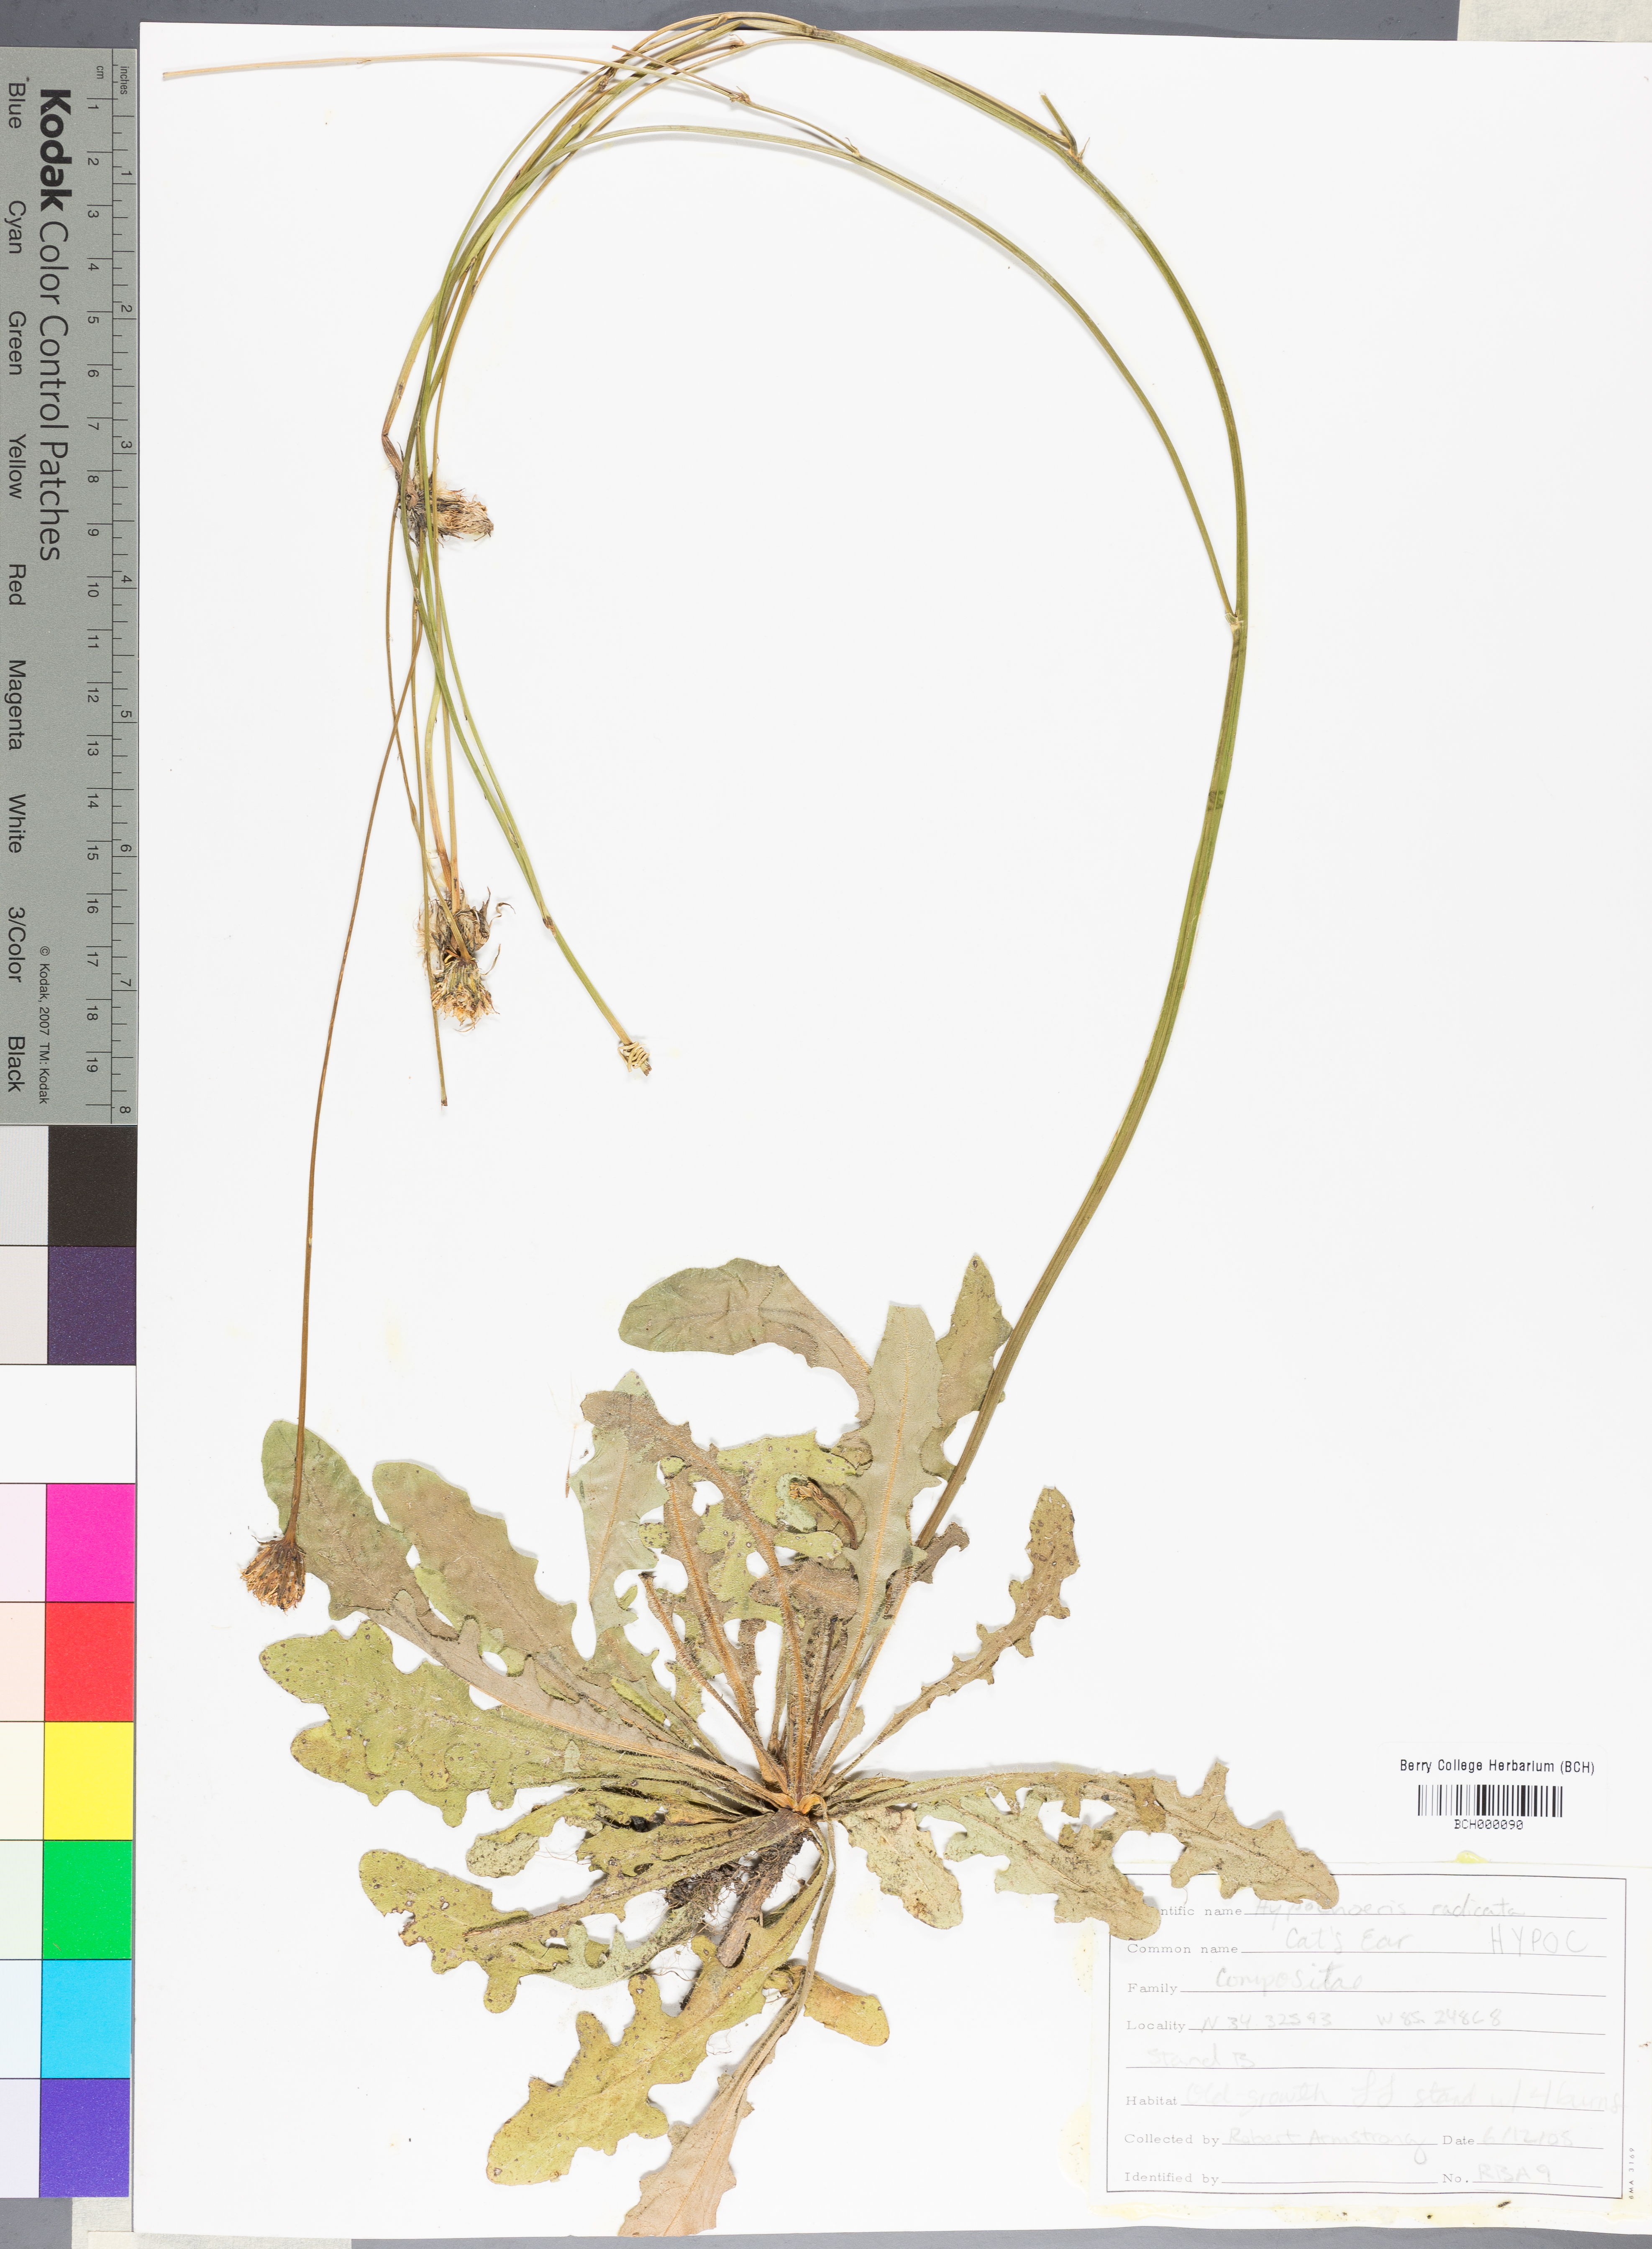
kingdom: Plantae
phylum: Tracheophyta
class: Magnoliopsida
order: Asterales
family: Asteraceae
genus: Hypochaeris
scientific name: Hypochaeris
